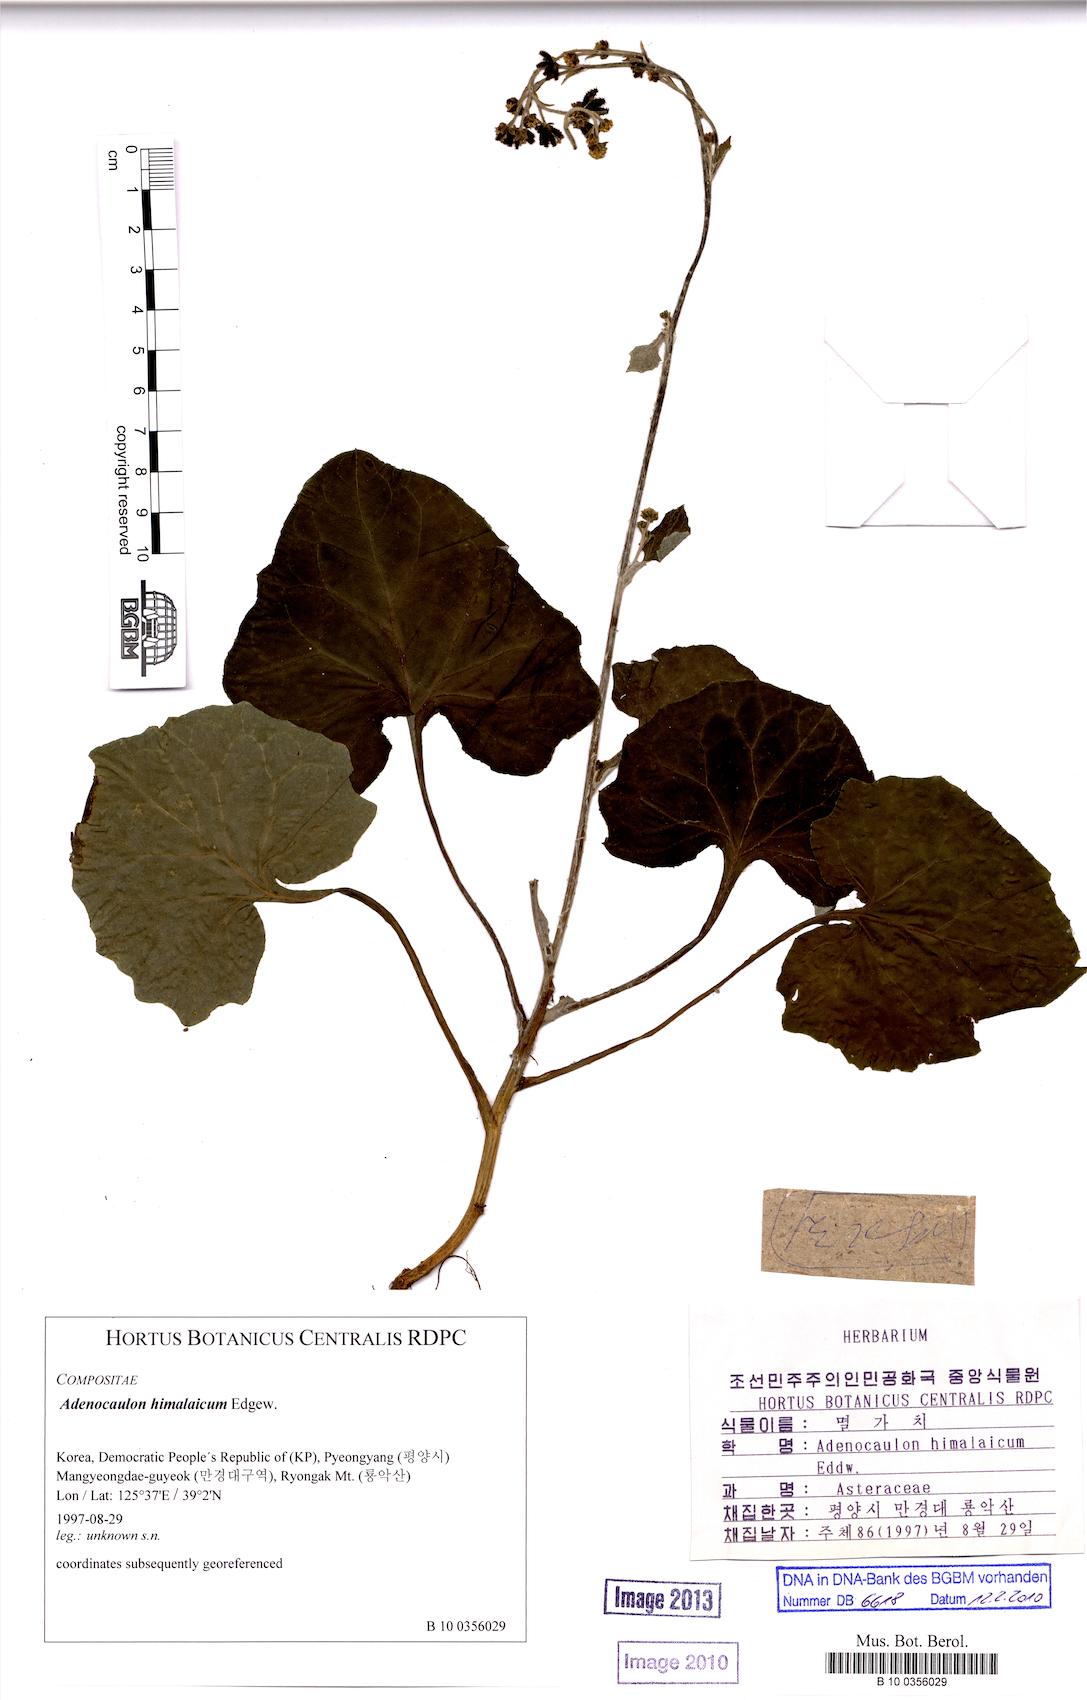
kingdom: Plantae
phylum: Tracheophyta
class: Magnoliopsida
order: Asterales
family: Asteraceae
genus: Adenocaulon
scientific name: Adenocaulon himalaicum
